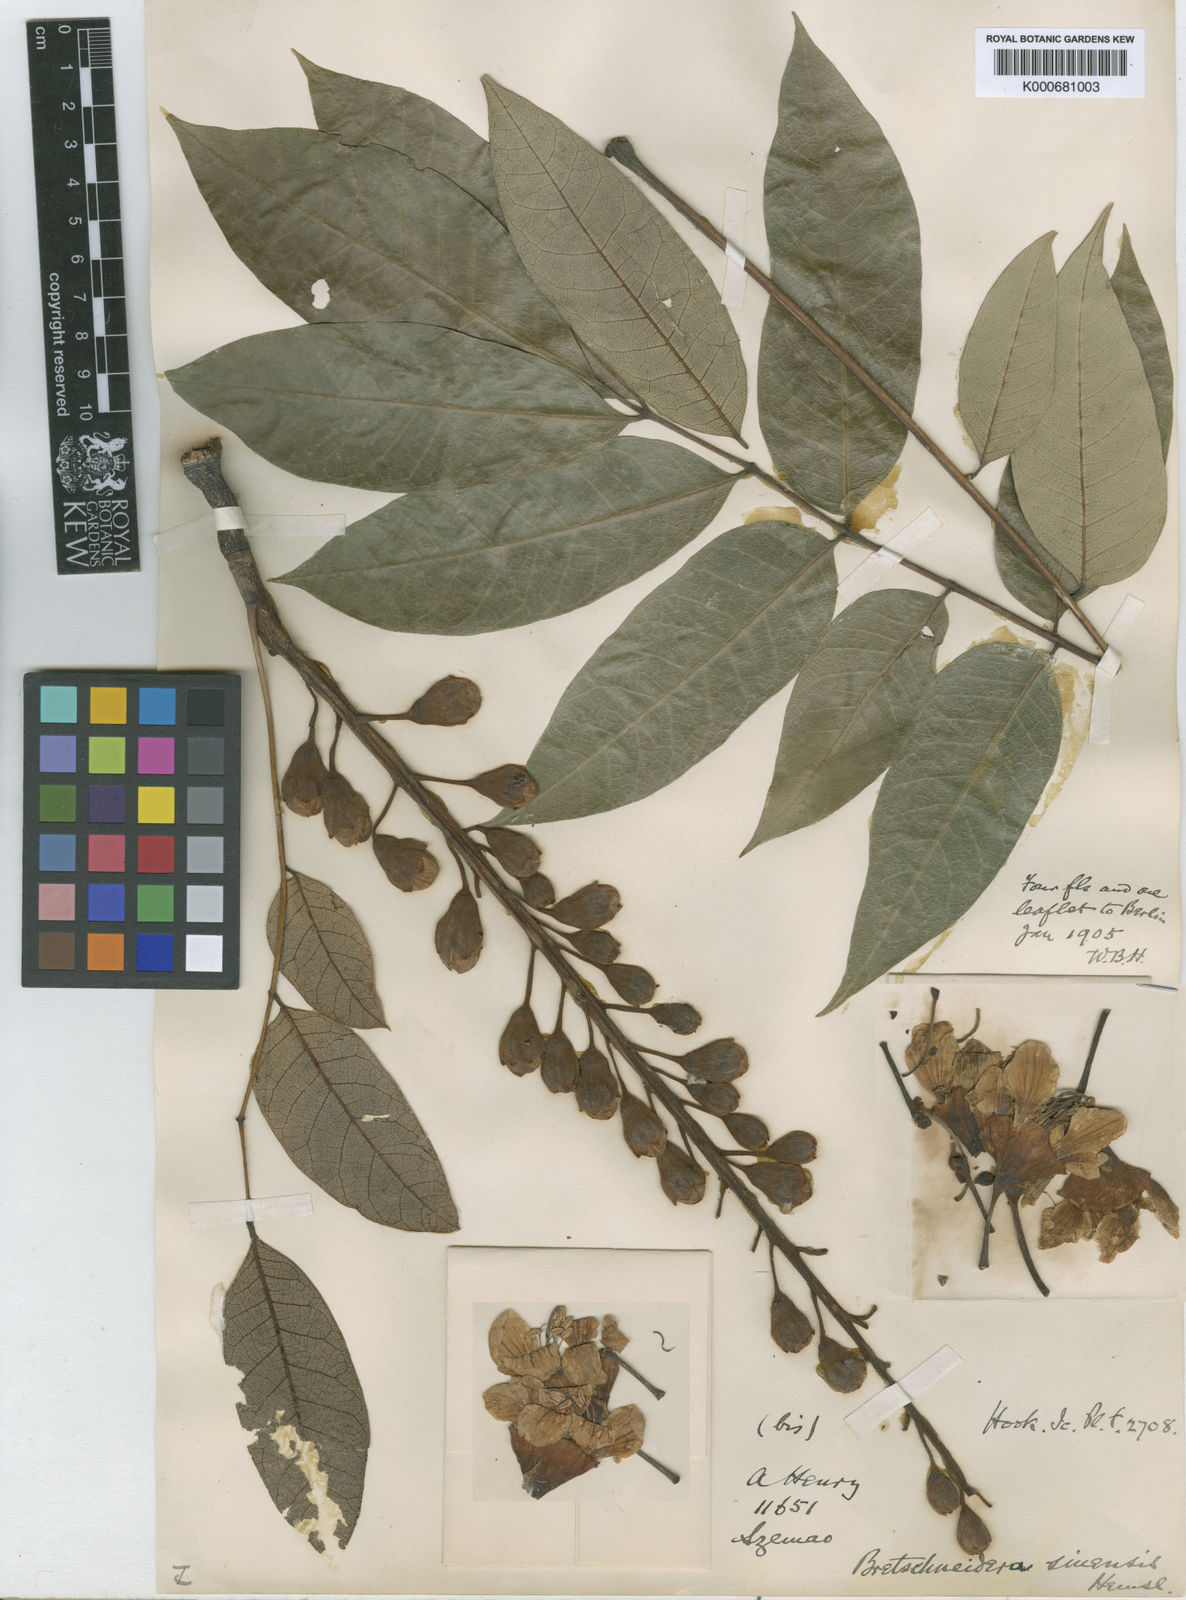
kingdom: Plantae
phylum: Tracheophyta
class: Magnoliopsida
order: Brassicales
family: Akaniaceae
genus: Bretschneidera
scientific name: Bretschneidera sinensis
